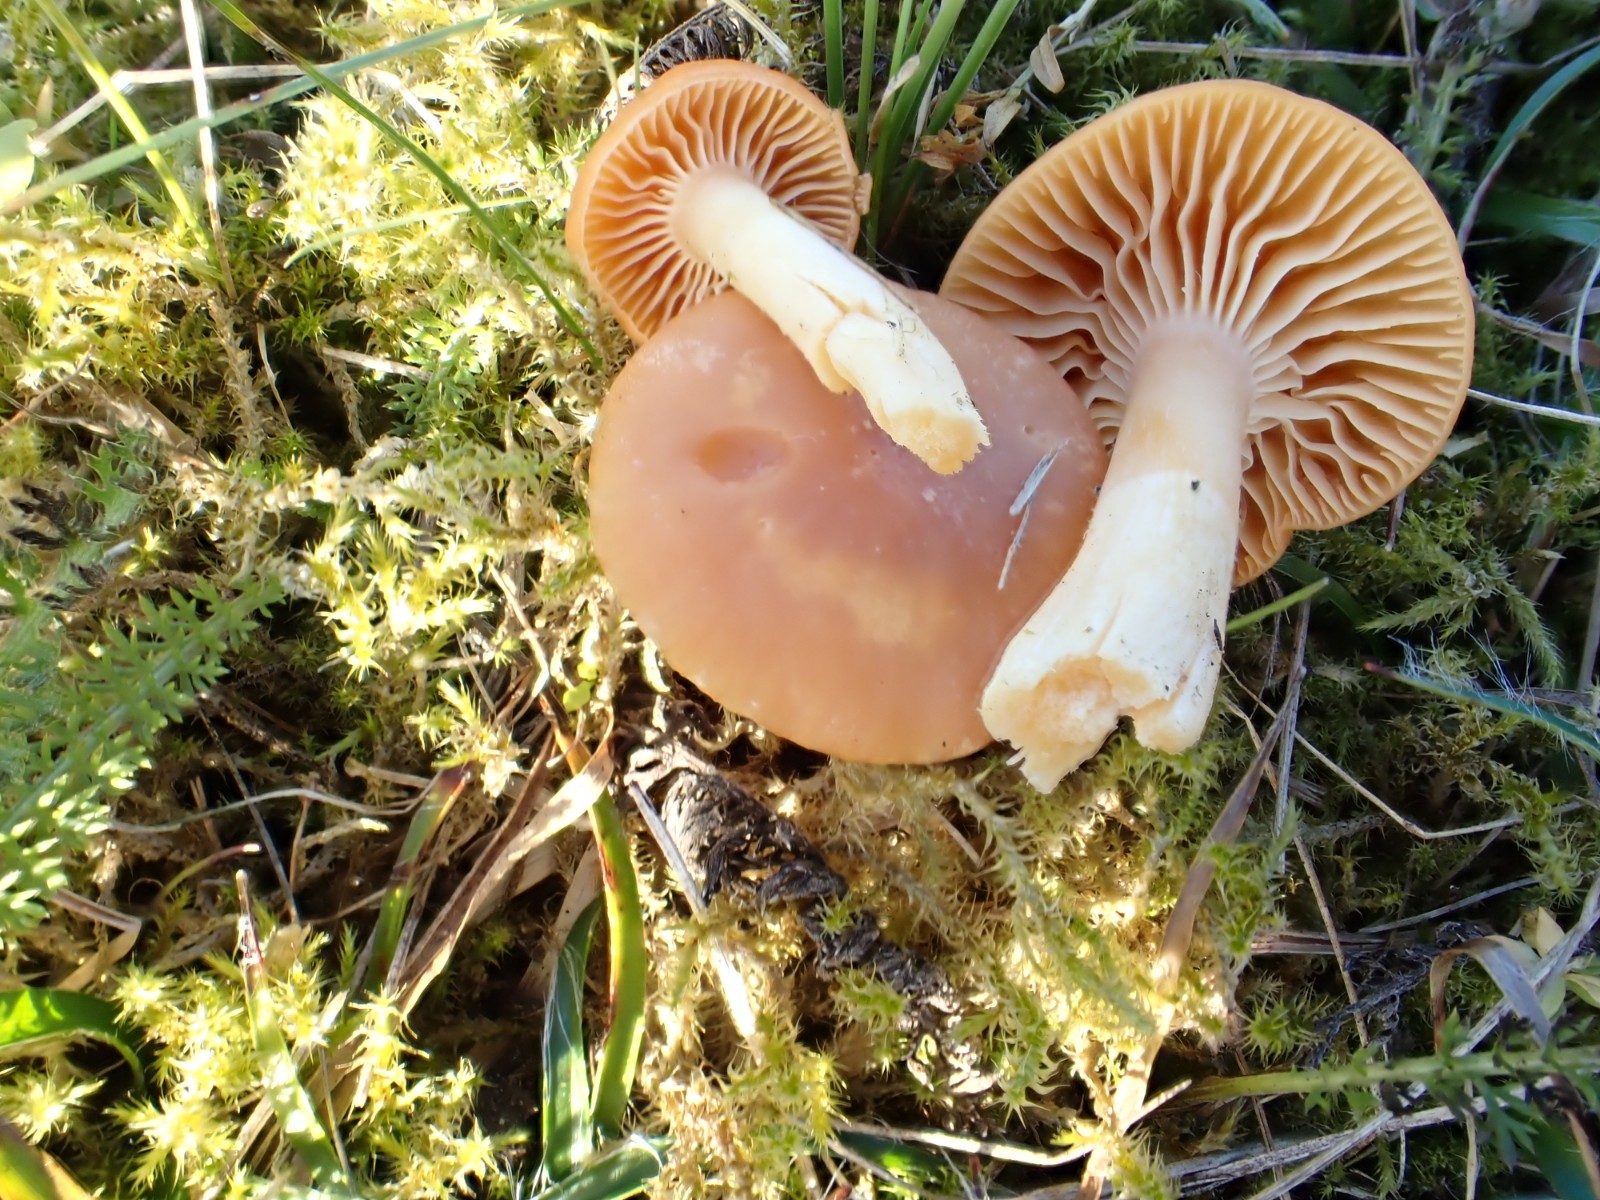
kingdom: Fungi
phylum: Basidiomycota
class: Agaricomycetes
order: Agaricales
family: Hygrophoraceae
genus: Cuphophyllus
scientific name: Cuphophyllus pratensis
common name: eng-vokshat
